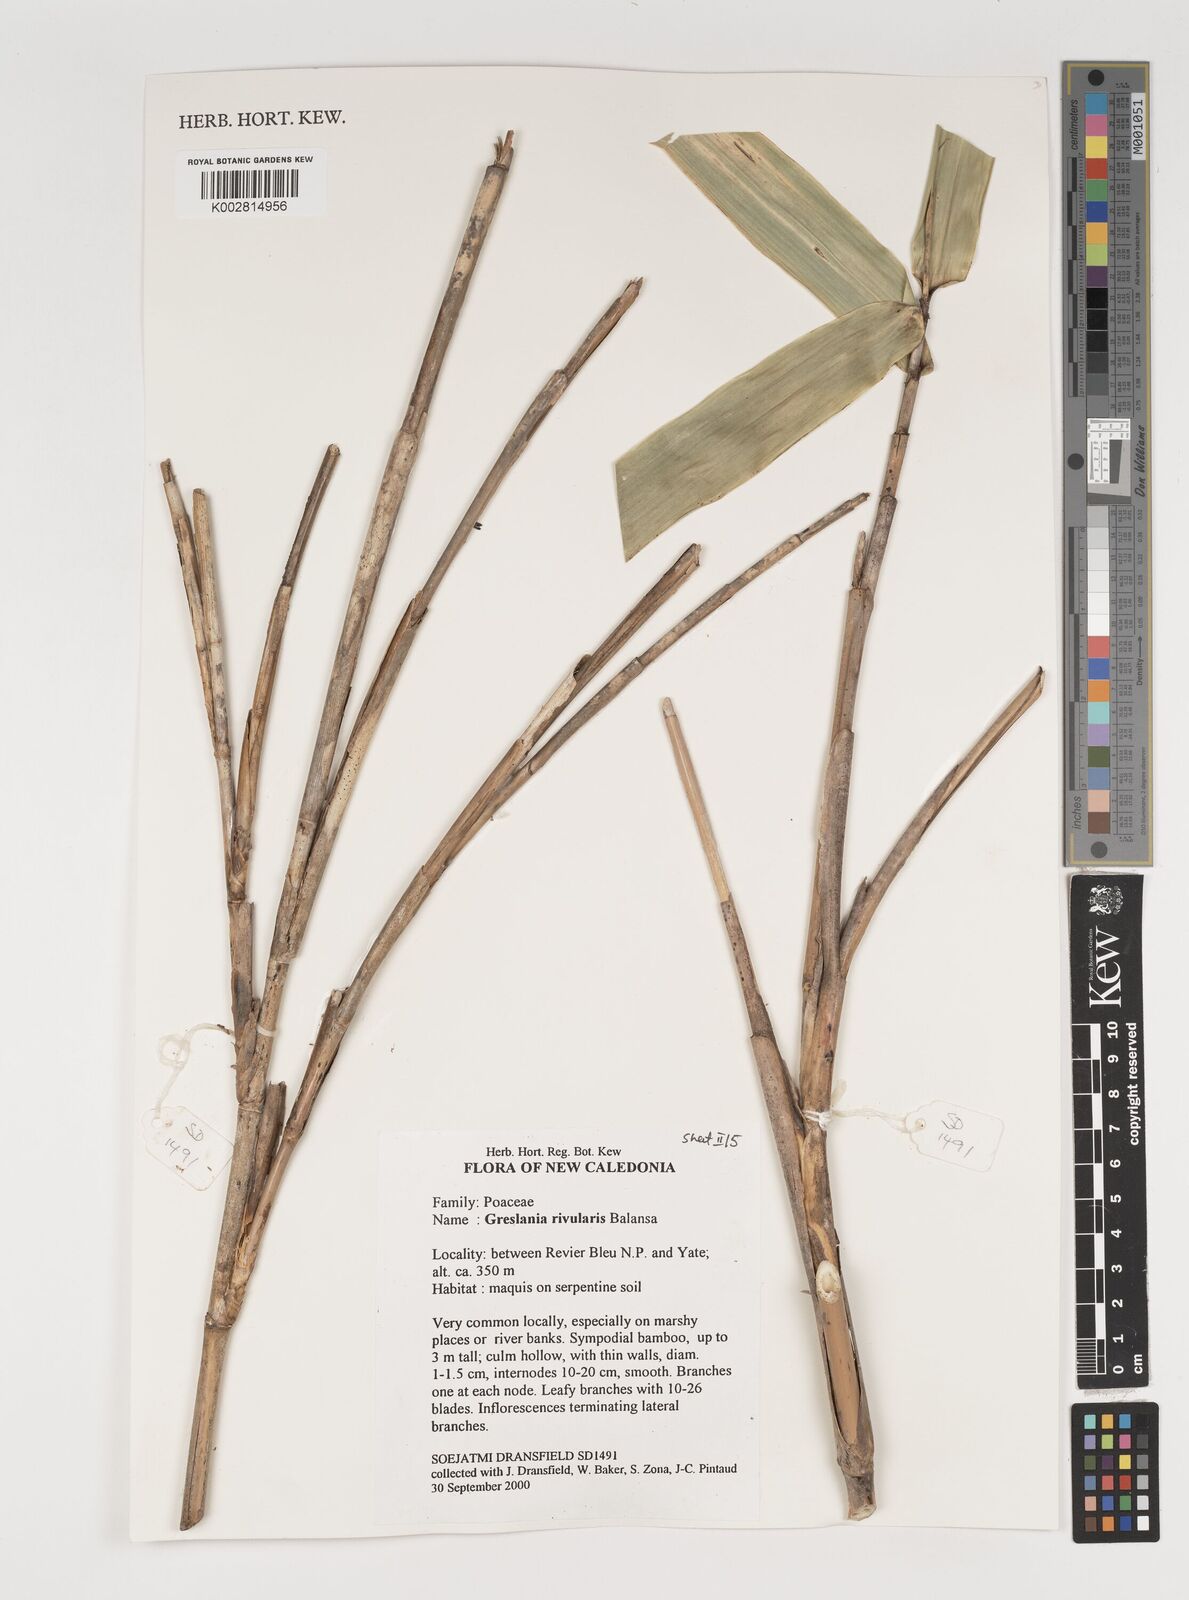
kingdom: Plantae
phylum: Tracheophyta
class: Liliopsida
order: Poales
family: Poaceae
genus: Greslania
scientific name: Greslania rivularis
